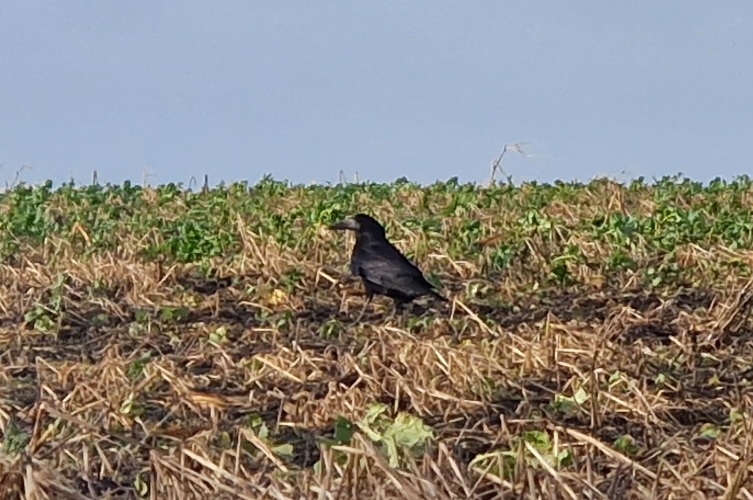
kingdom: Animalia
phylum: Chordata
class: Aves
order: Passeriformes
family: Corvidae
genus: Corvus
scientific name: Corvus frugilegus
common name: Råge
